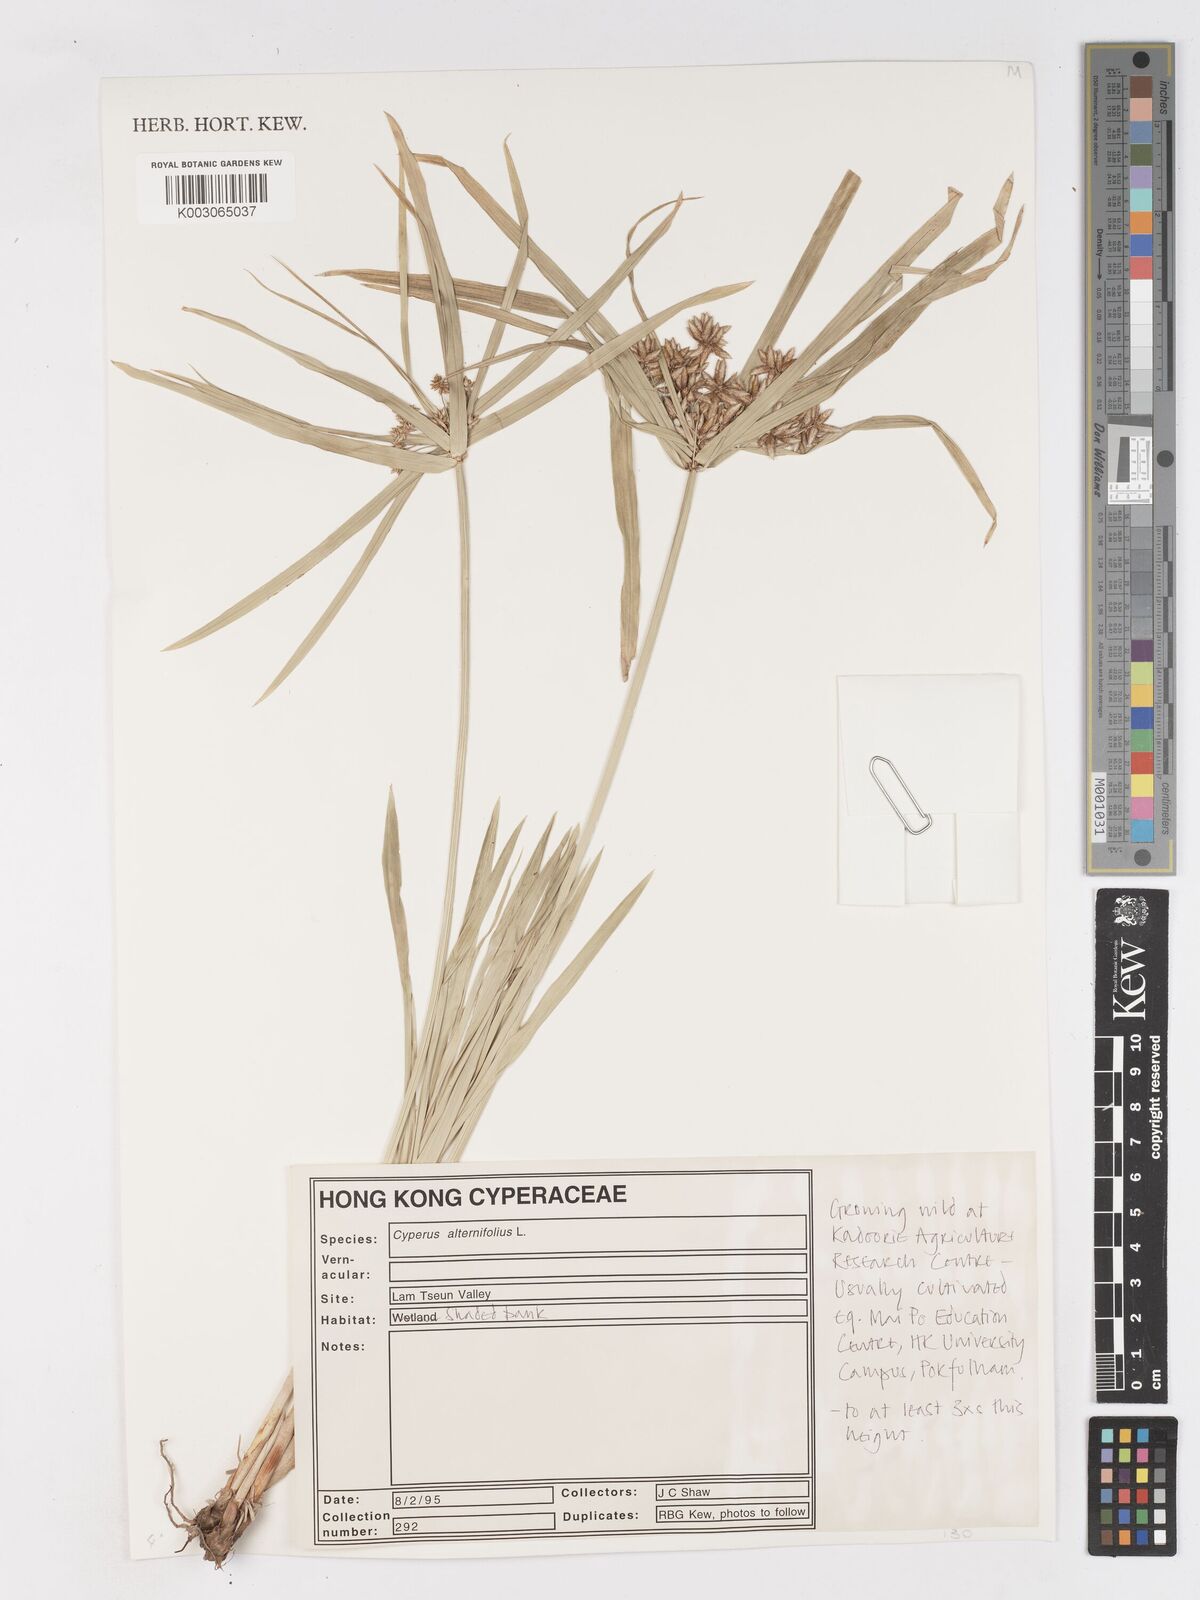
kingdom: Plantae
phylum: Tracheophyta
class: Liliopsida
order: Poales
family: Cyperaceae
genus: Cyperus
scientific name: Cyperus alternifolius
